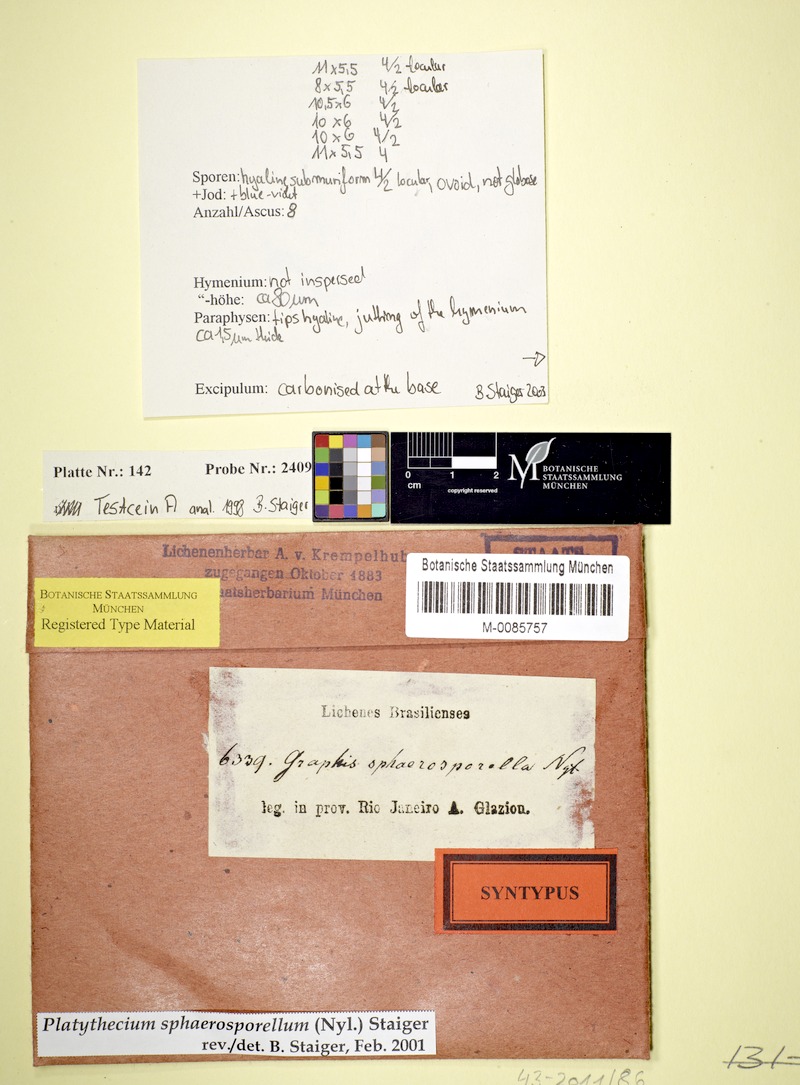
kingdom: Fungi
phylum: Ascomycota
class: Lecanoromycetes
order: Ostropales
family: Graphidaceae
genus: Platythecium
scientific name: Platythecium sphaerosporellum
